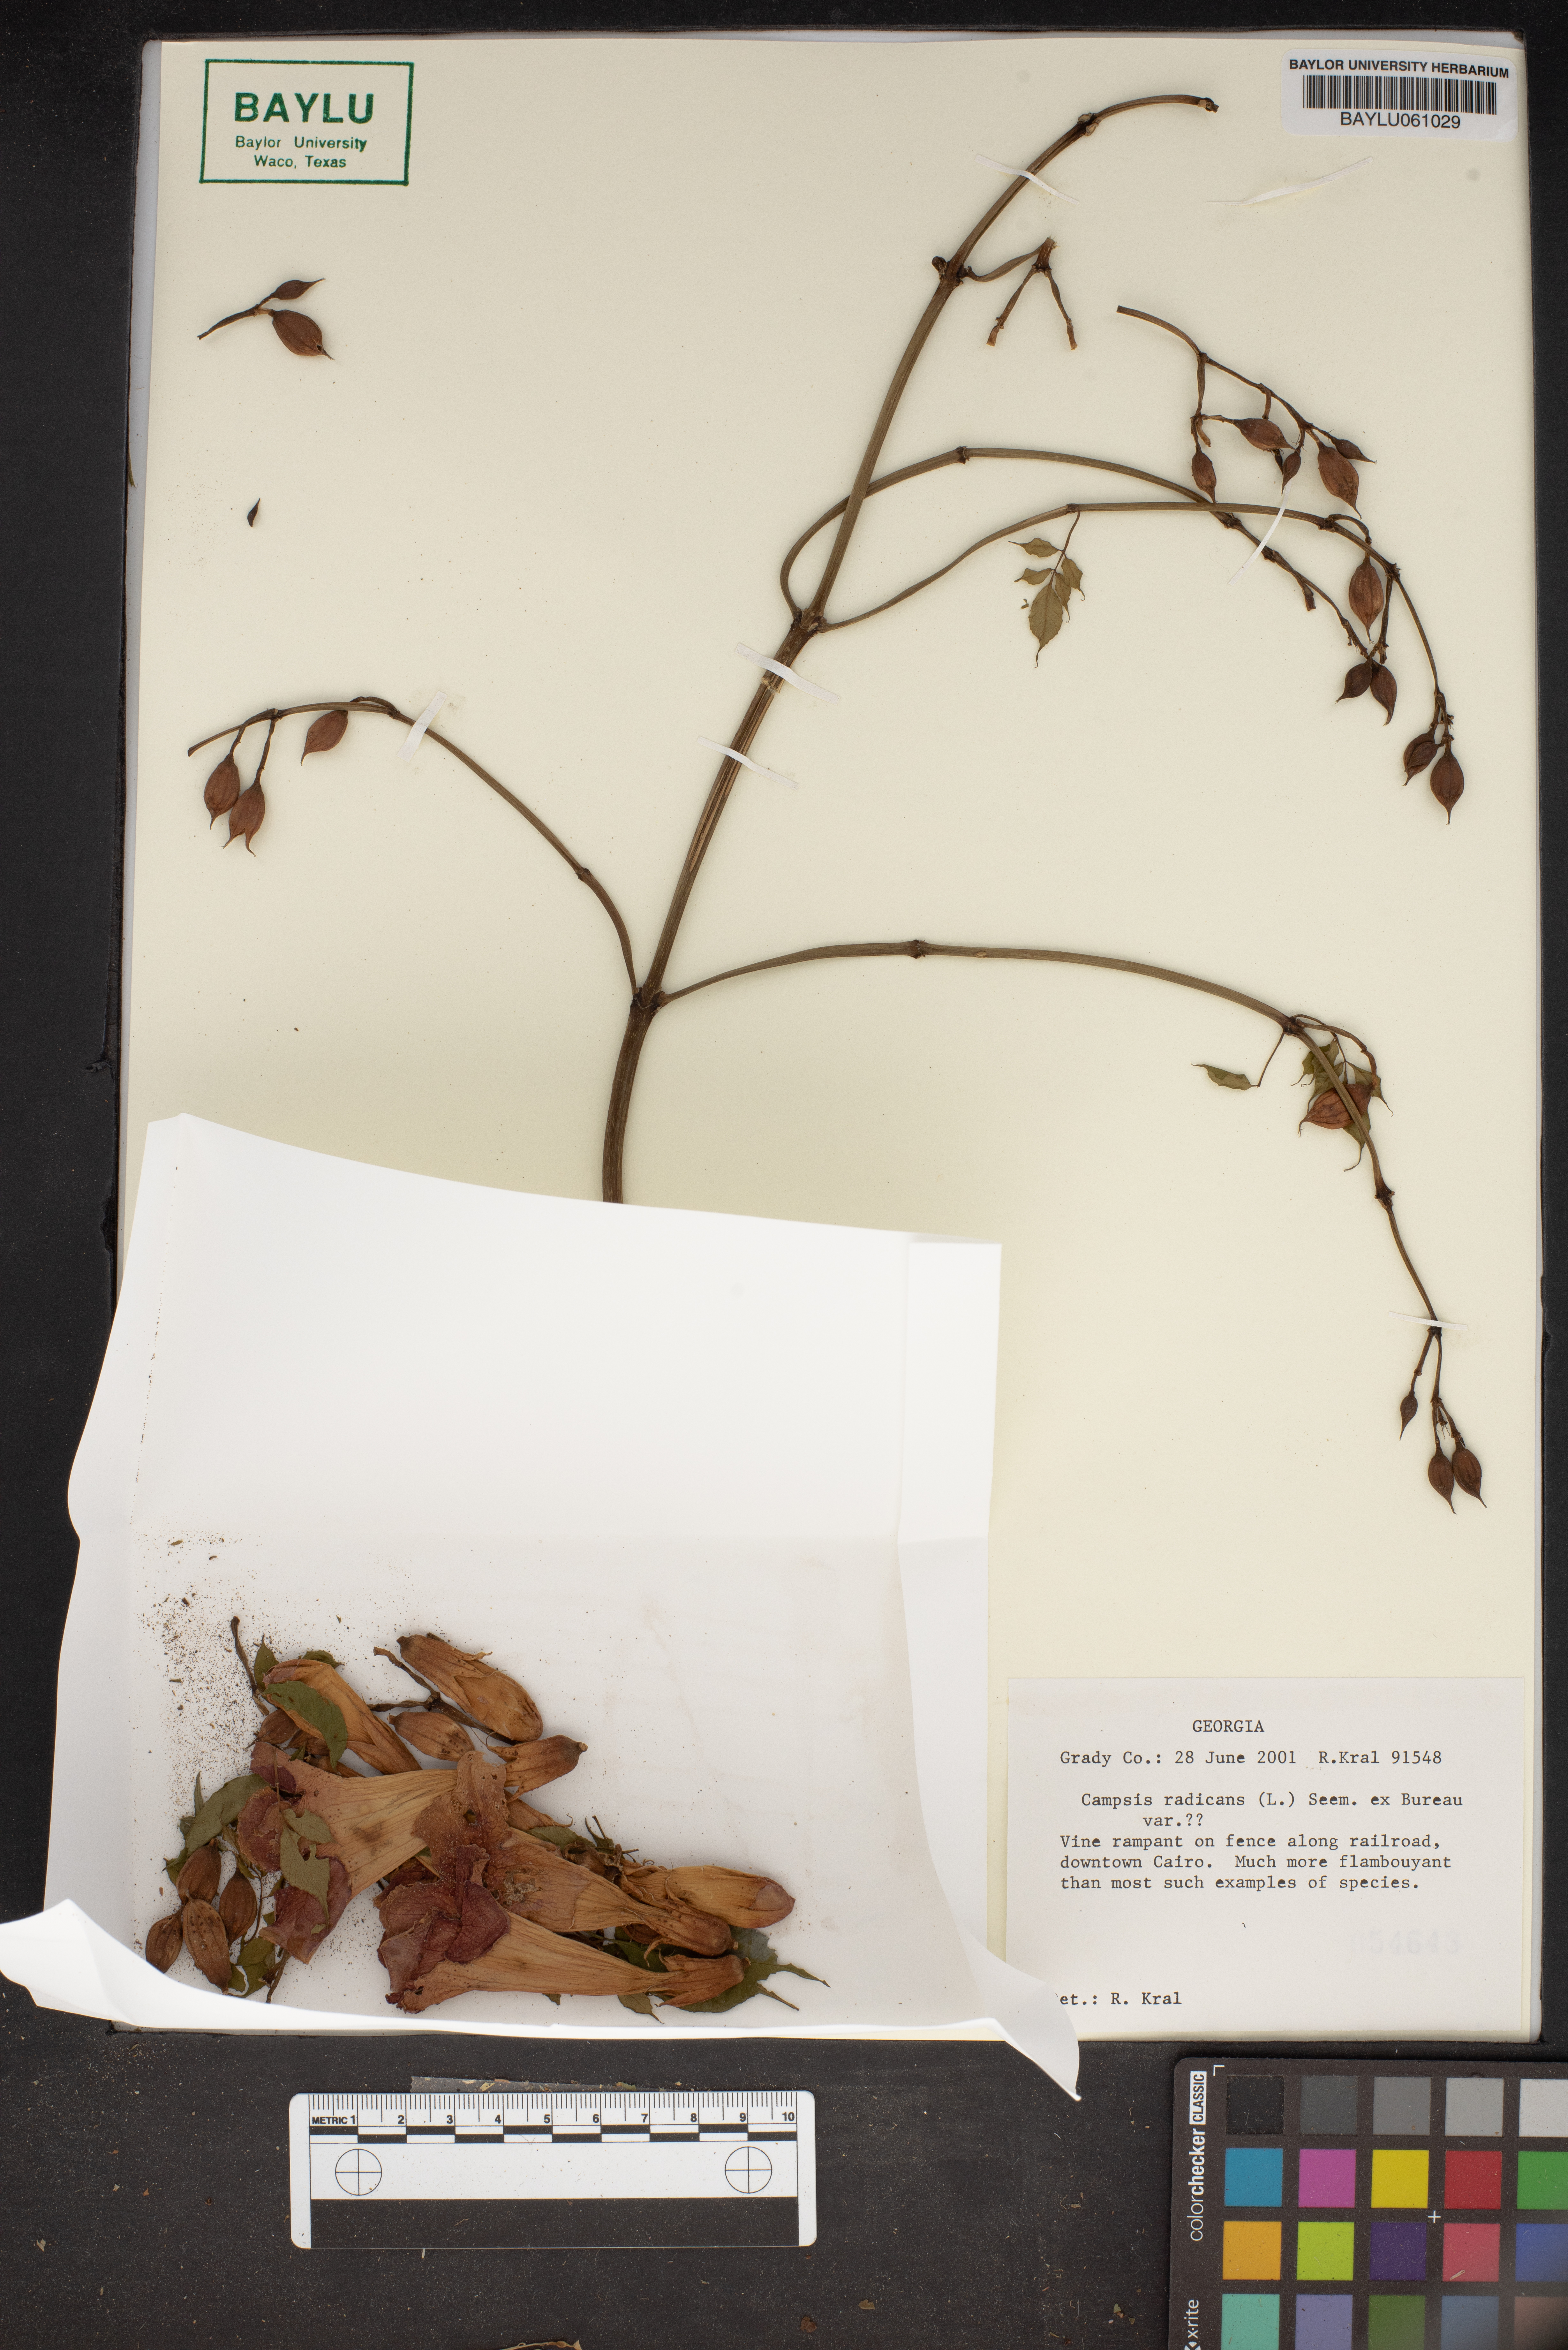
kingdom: Plantae
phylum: Tracheophyta
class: Magnoliopsida
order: Lamiales
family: Bignoniaceae
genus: Campsis
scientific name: Campsis radicans
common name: Trumpet-creeper
